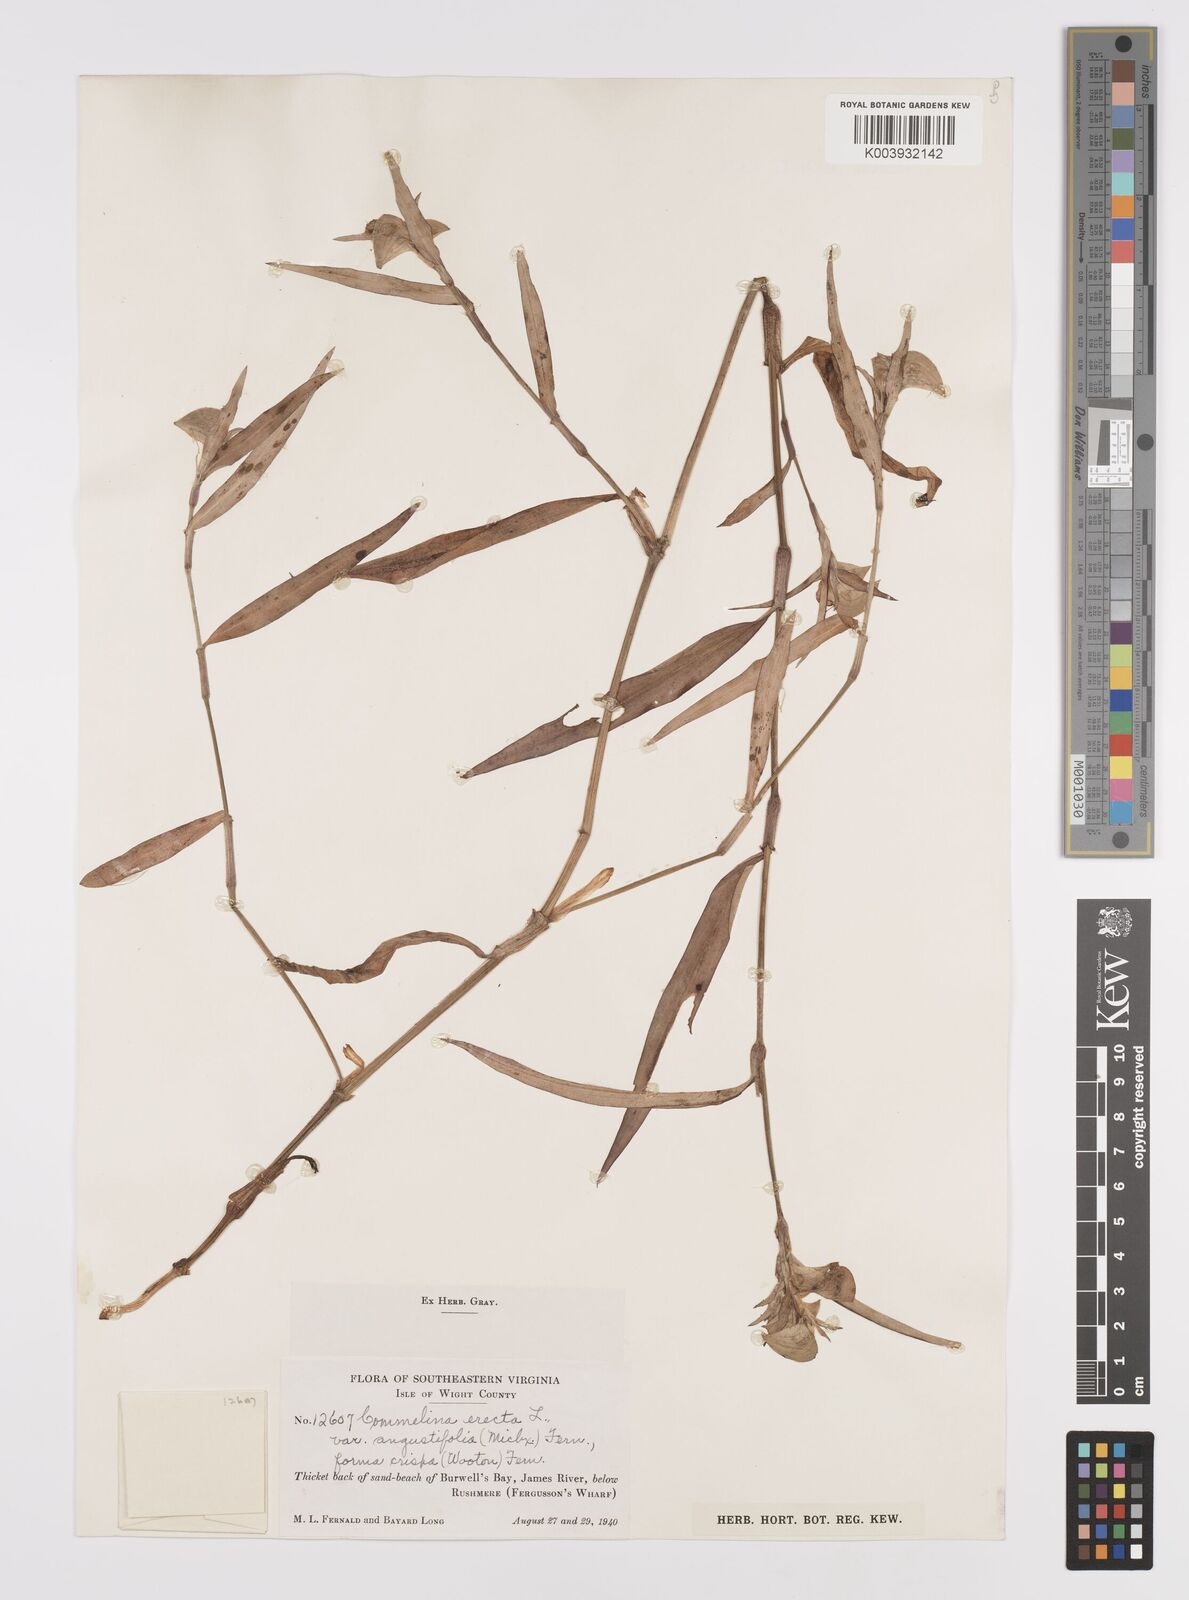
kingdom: Plantae
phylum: Tracheophyta
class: Liliopsida
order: Commelinales
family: Commelinaceae
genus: Commelina
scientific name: Commelina erecta
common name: Blousel blommetjie
